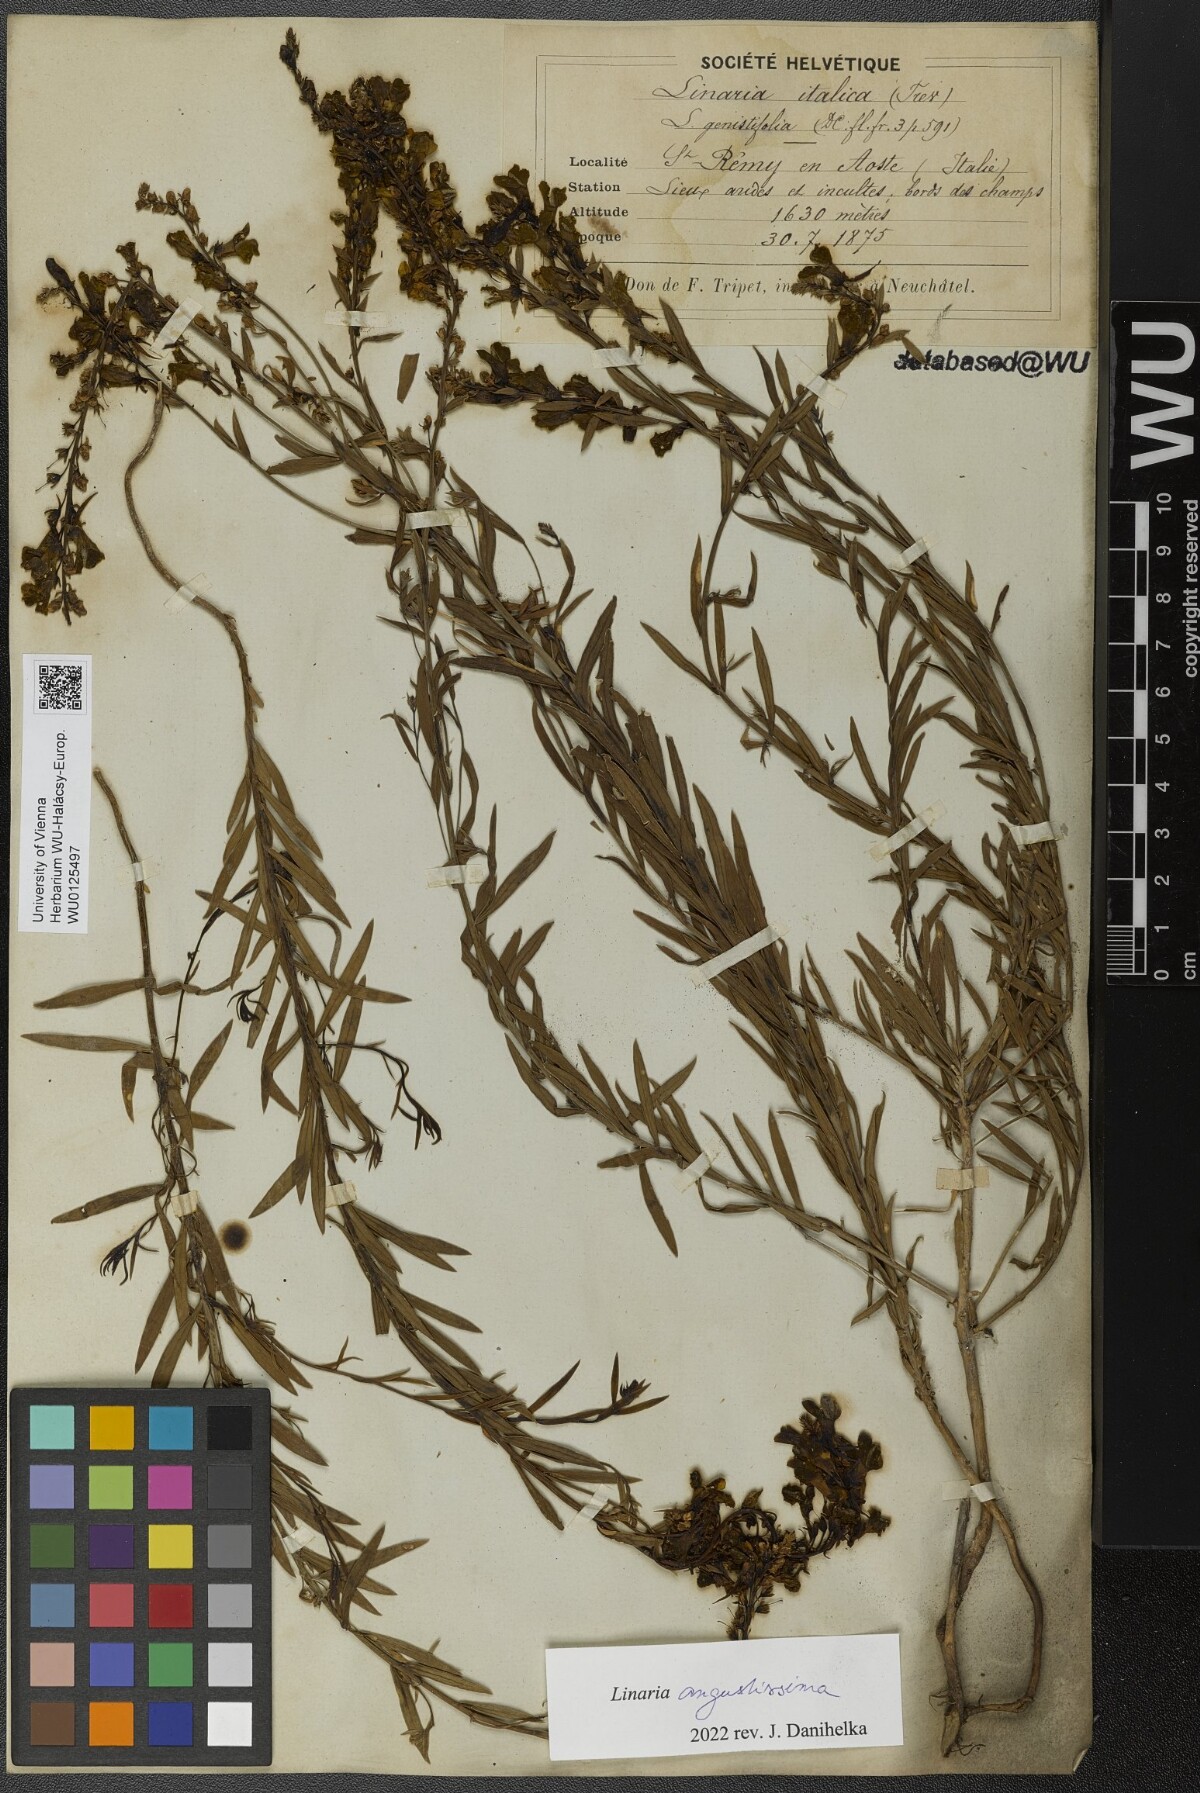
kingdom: Plantae
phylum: Tracheophyta
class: Magnoliopsida
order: Lamiales
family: Plantaginaceae
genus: Linaria
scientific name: Linaria angustissima
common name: Italian toadflax
